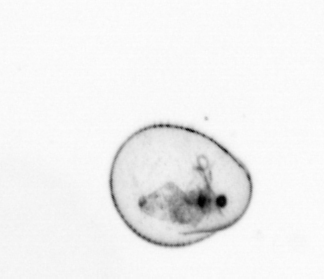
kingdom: Chromista
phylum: Myzozoa
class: Dinophyceae
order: Noctilucales
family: Noctilucaceae
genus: Noctiluca
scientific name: Noctiluca scintillans
